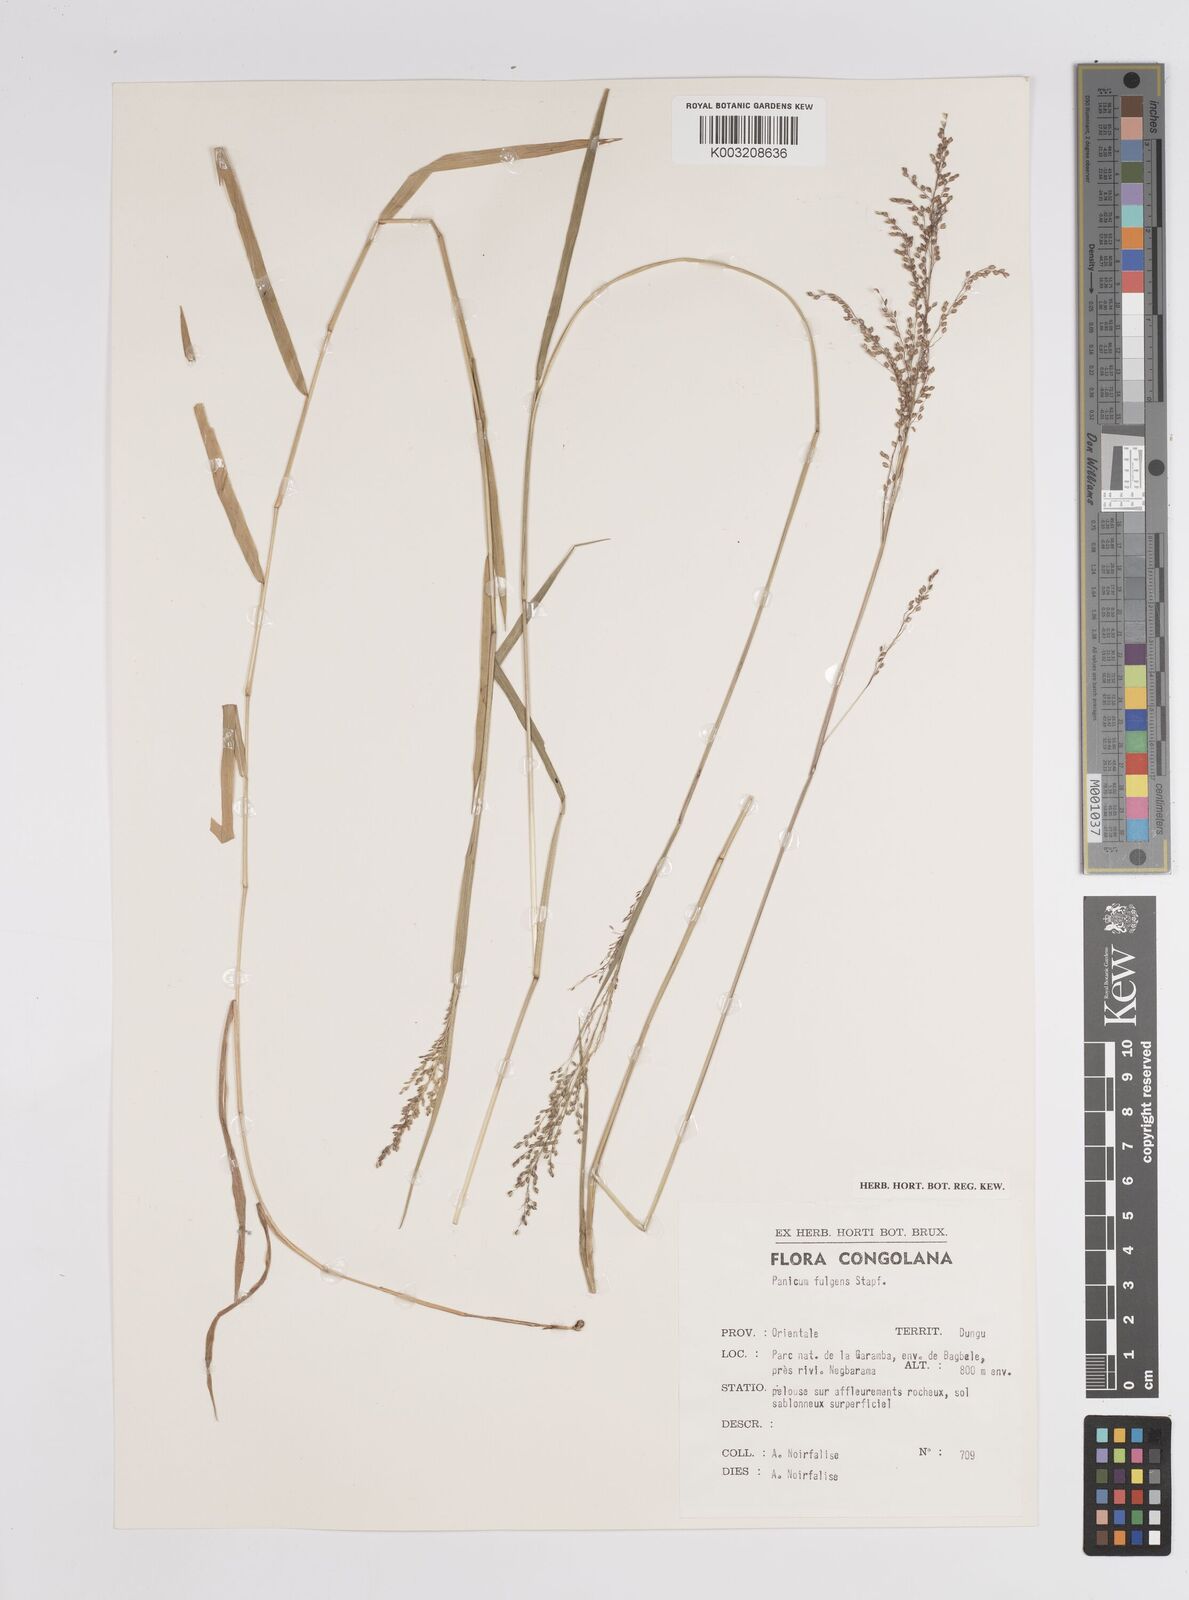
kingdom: Plantae
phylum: Tracheophyta
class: Liliopsida
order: Poales
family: Poaceae
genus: Trichanthecium
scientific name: Trichanthecium nervatum
